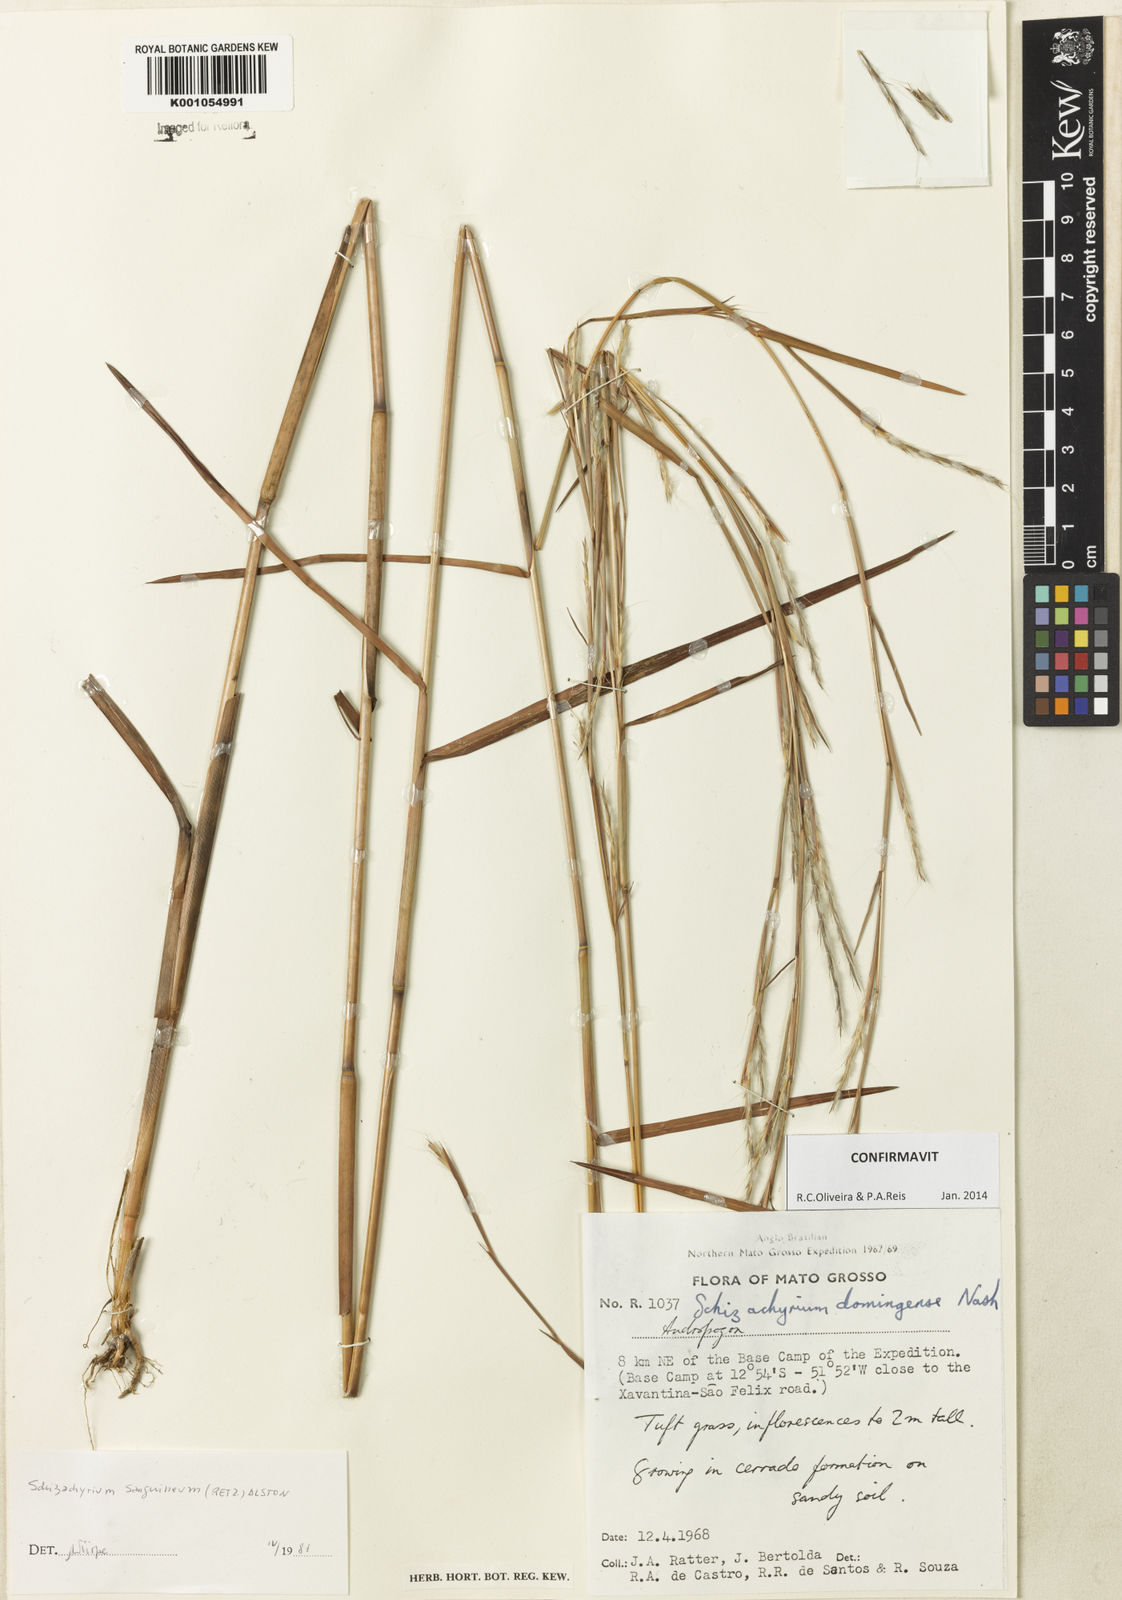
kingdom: Plantae
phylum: Tracheophyta
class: Liliopsida
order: Poales
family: Poaceae
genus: Schizachyrium
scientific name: Schizachyrium sanguineum
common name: Crimson bluestem
